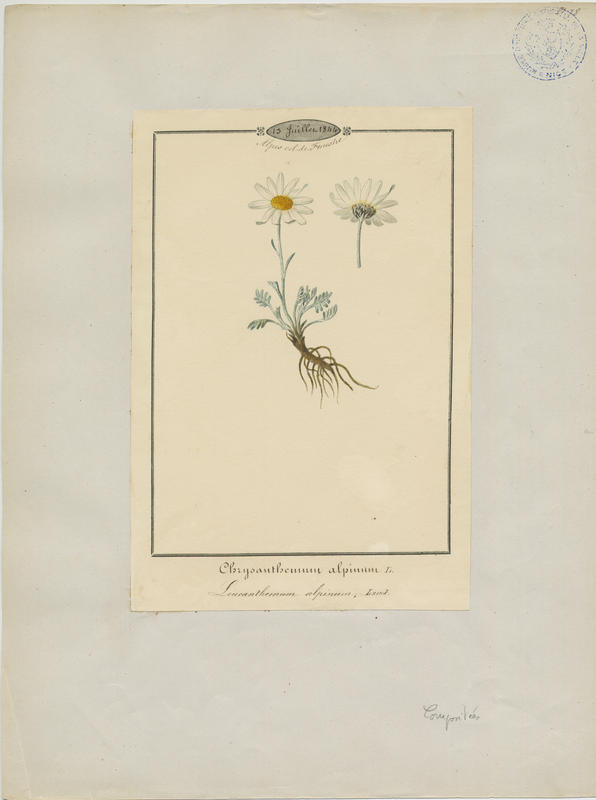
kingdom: Plantae
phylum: Tracheophyta
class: Magnoliopsida
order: Asterales
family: Asteraceae
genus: Leucanthemopsis
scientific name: Leucanthemopsis alpina
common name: Alpine moon daisy
